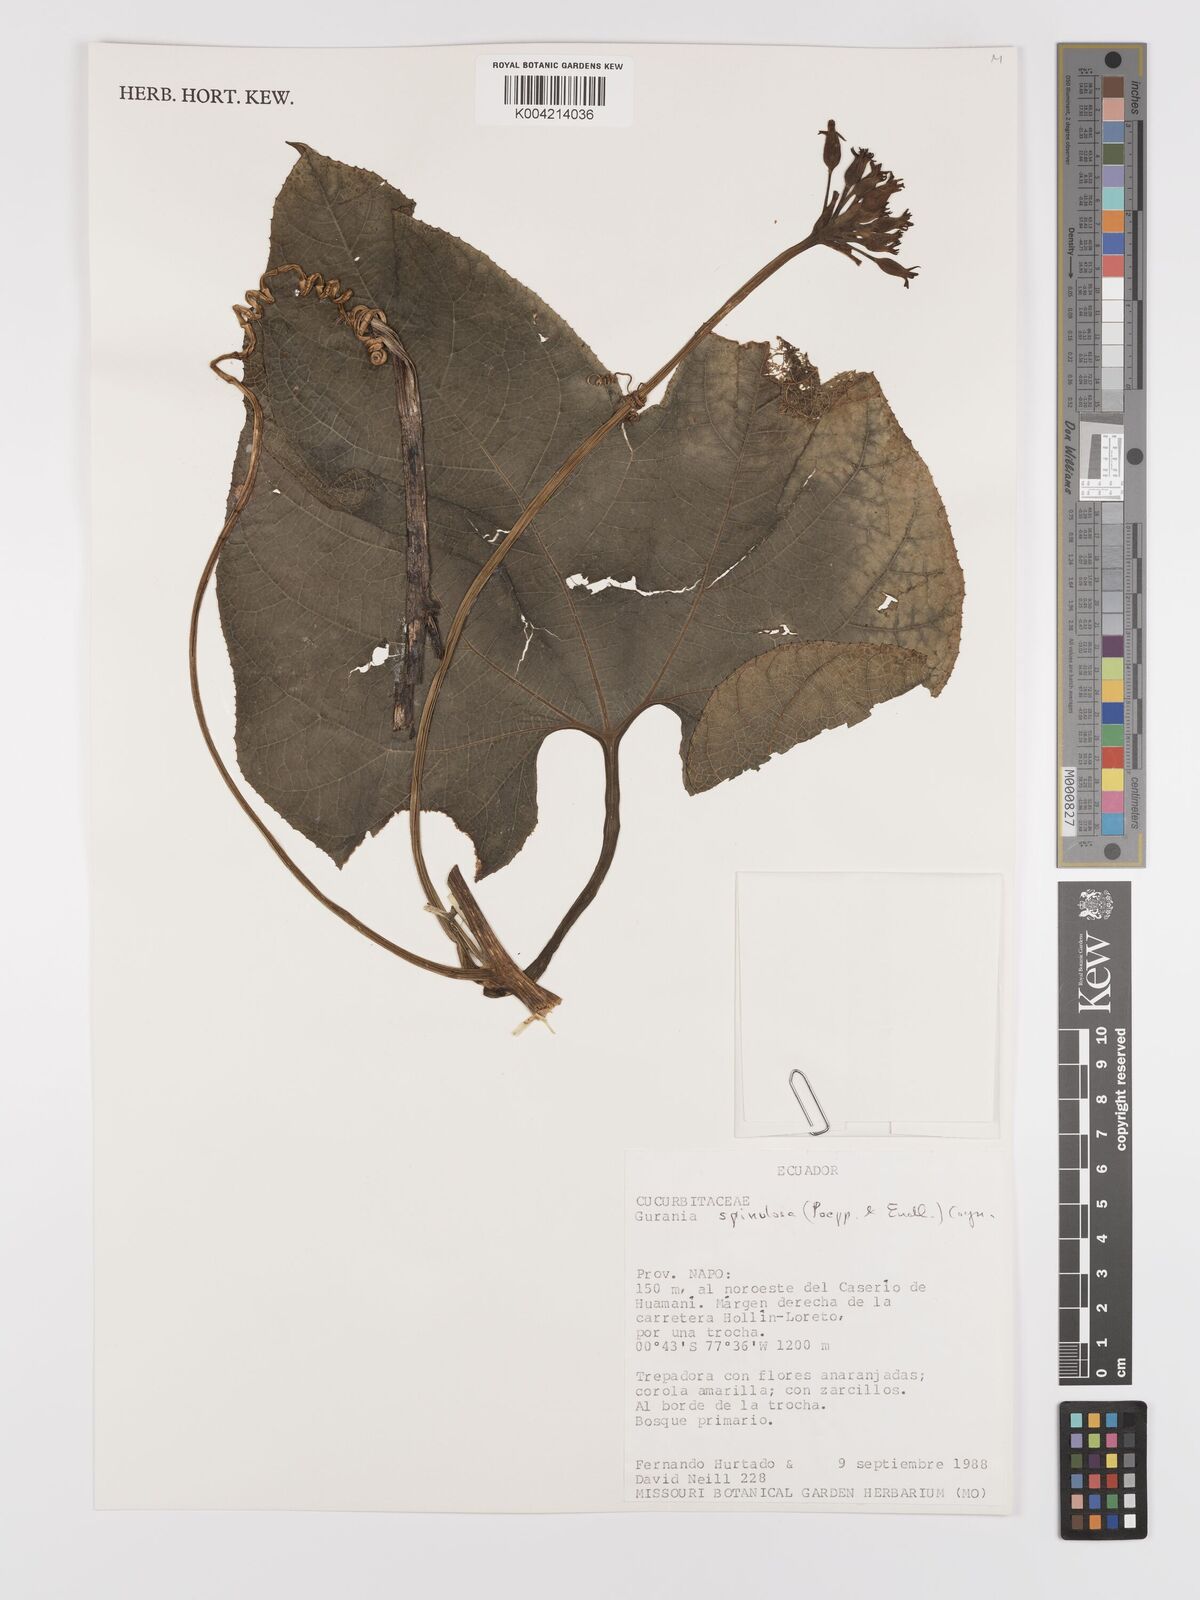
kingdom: Plantae
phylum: Tracheophyta
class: Magnoliopsida
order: Cucurbitales
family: Cucurbitaceae
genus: Gurania
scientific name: Gurania lobata
